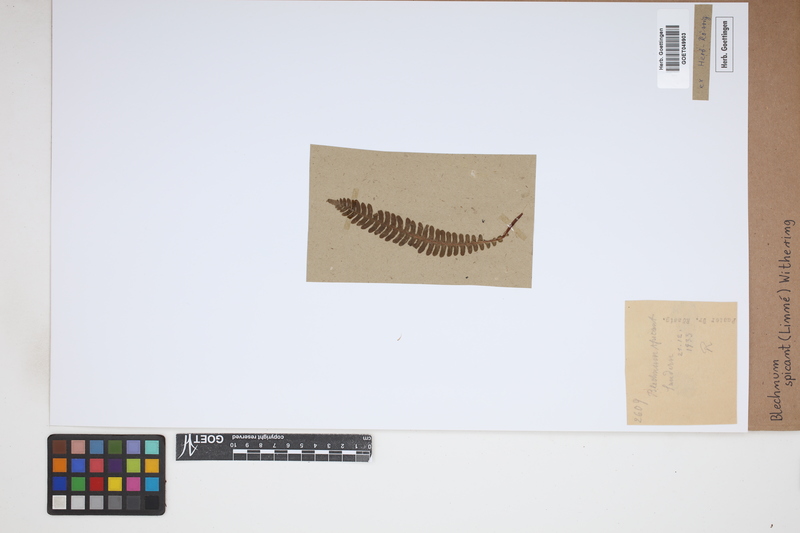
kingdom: Plantae
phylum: Tracheophyta
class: Polypodiopsida
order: Polypodiales
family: Blechnaceae
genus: Struthiopteris
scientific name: Struthiopteris spicant
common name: Deer fern
